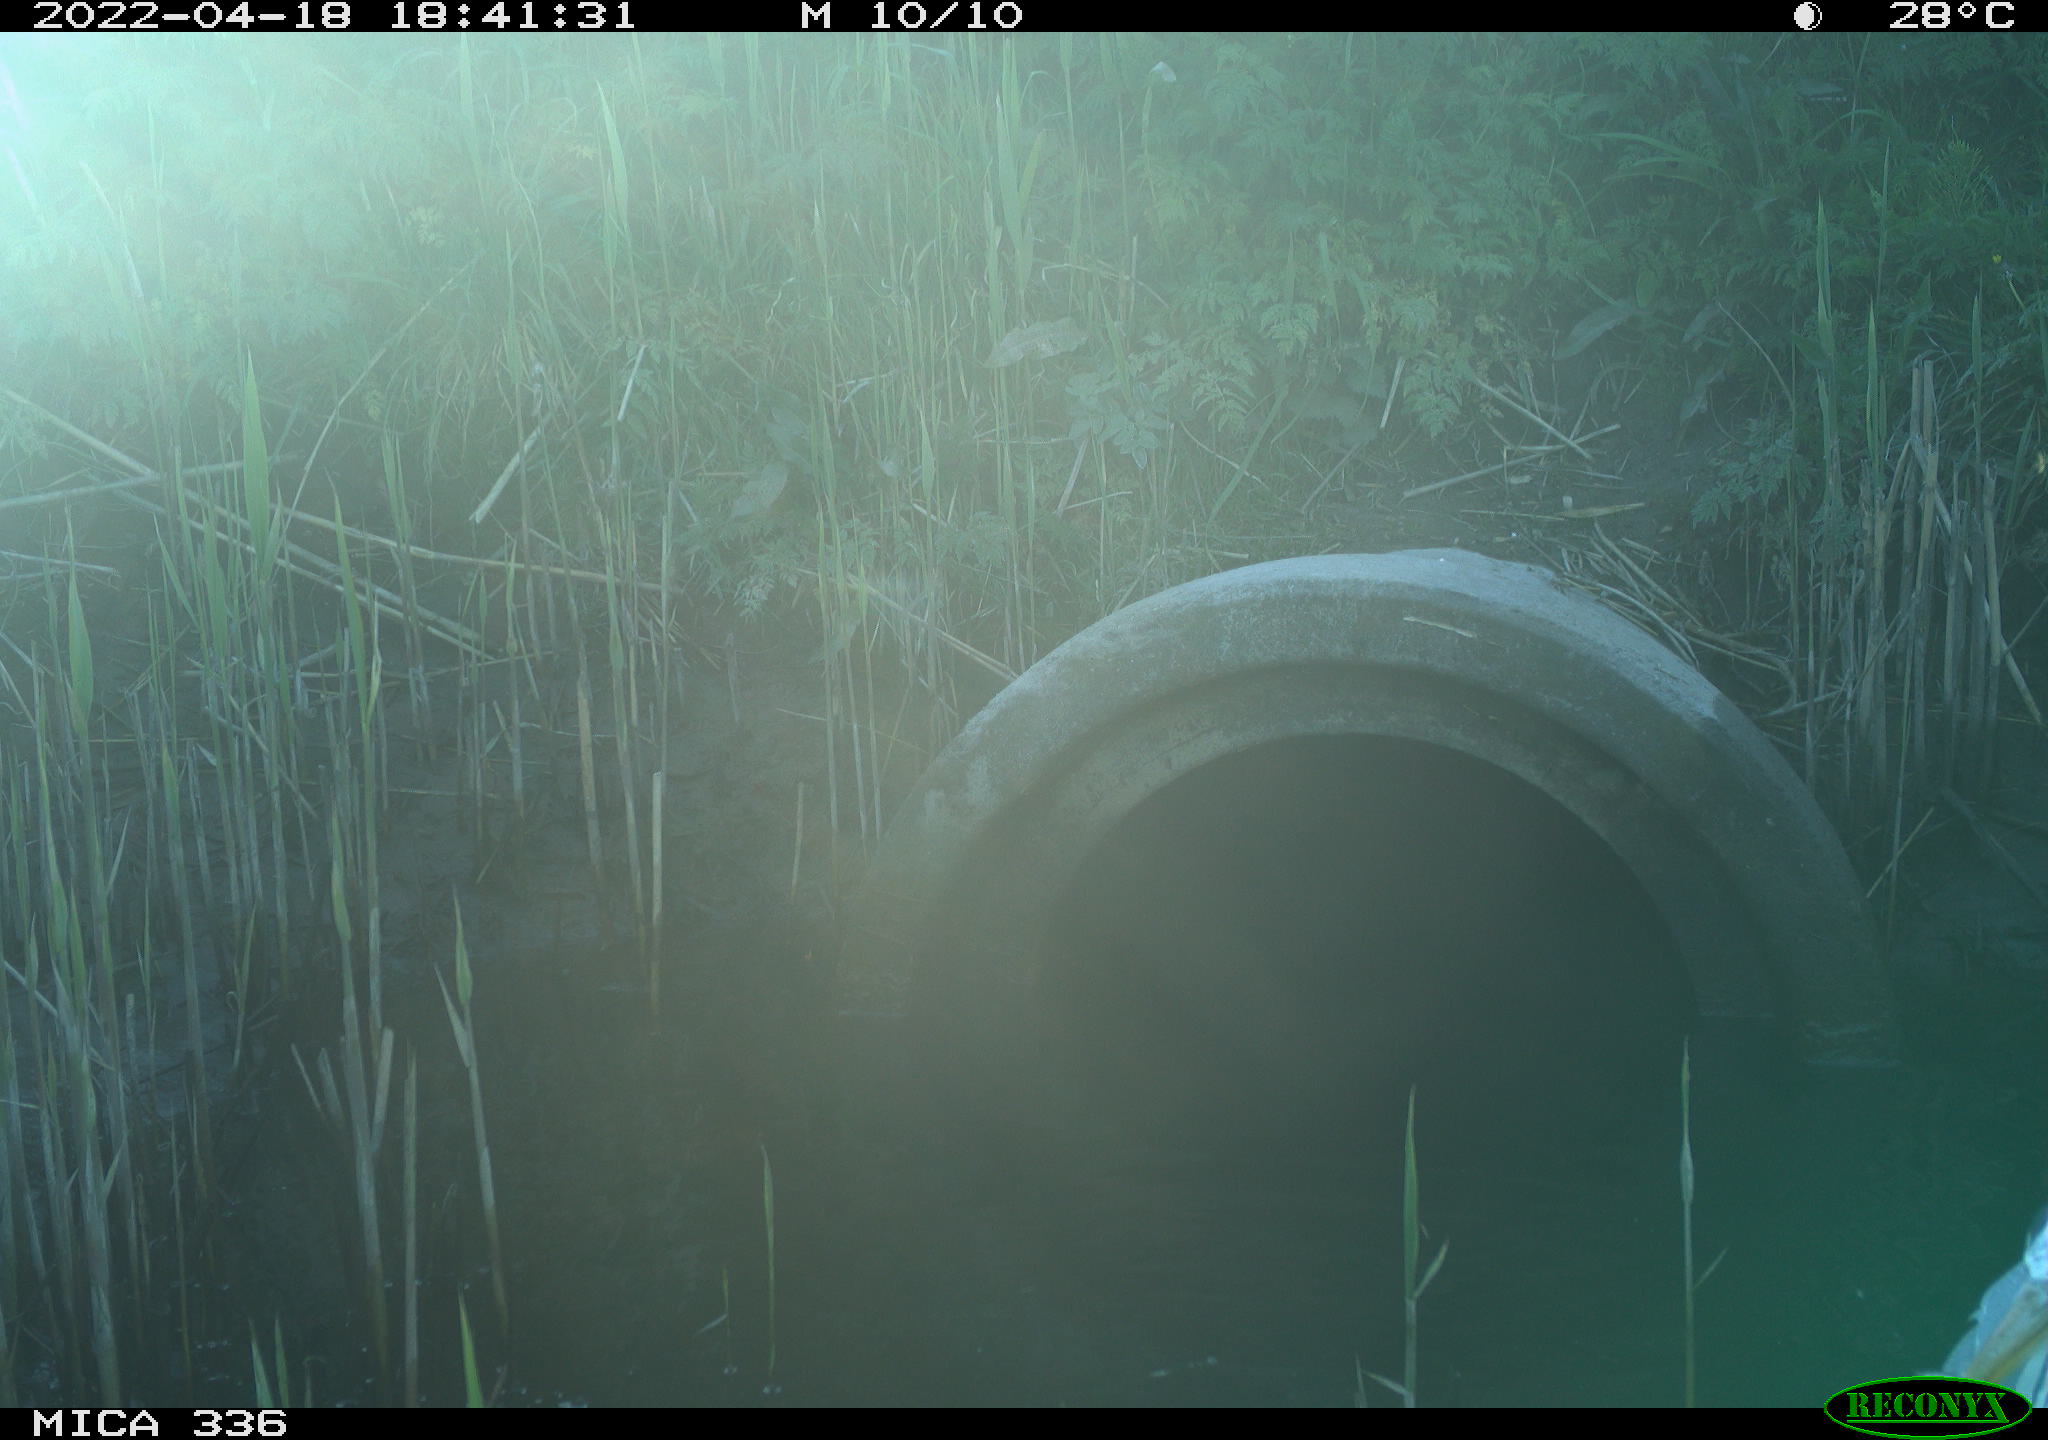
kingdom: Animalia
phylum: Chordata
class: Aves
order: Pelecaniformes
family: Ardeidae
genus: Ardea
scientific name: Ardea
